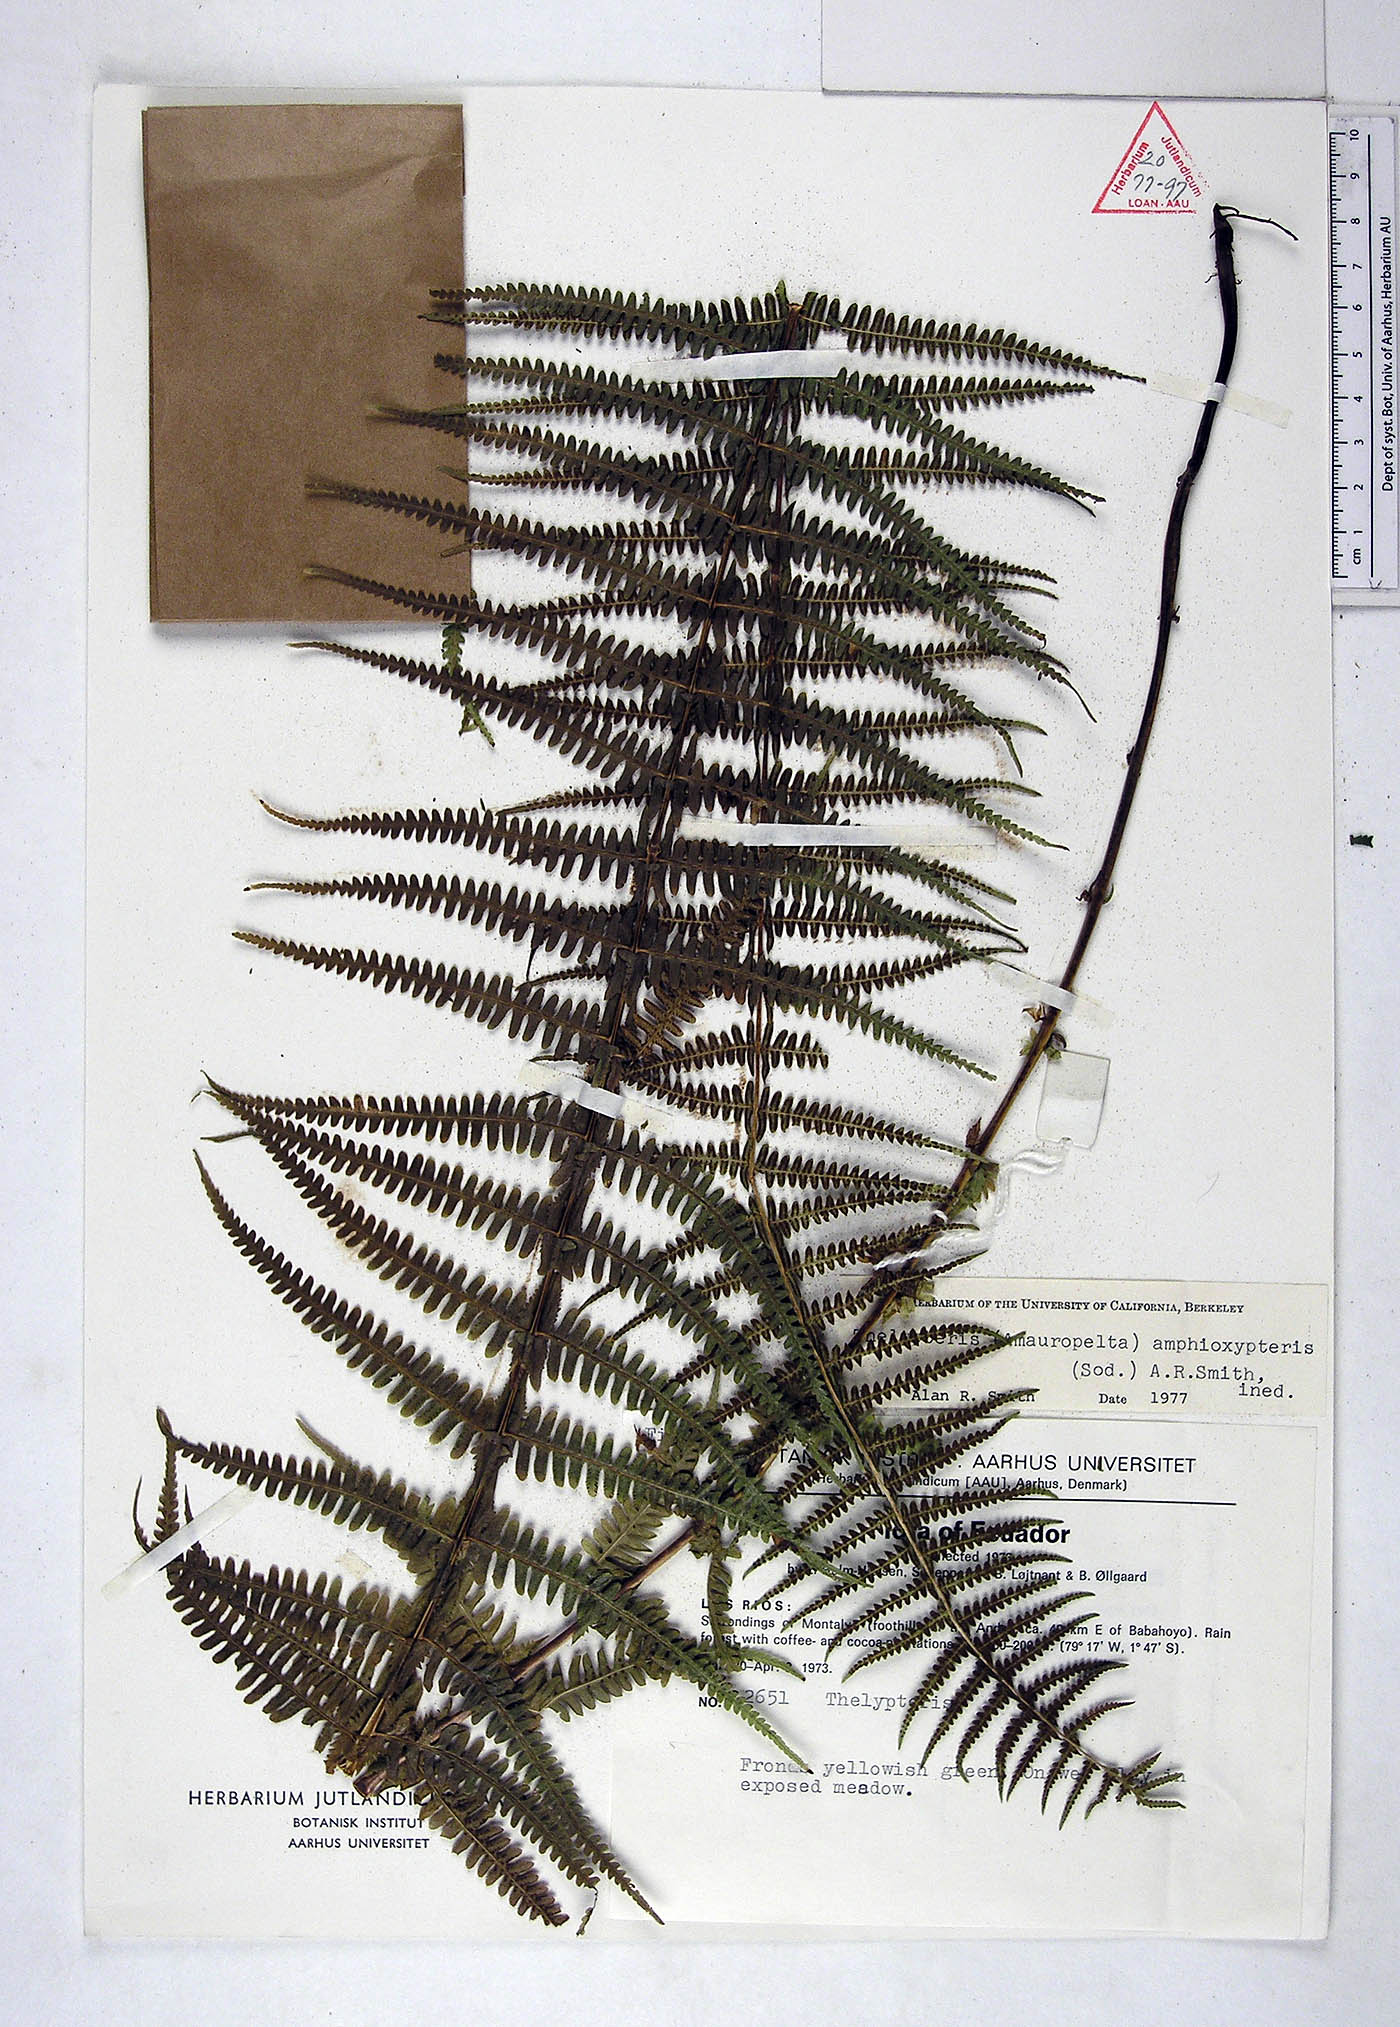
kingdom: Plantae
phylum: Tracheophyta
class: Polypodiopsida
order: Polypodiales
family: Thelypteridaceae
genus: Amauropelta
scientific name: Amauropelta amphioxypteris
